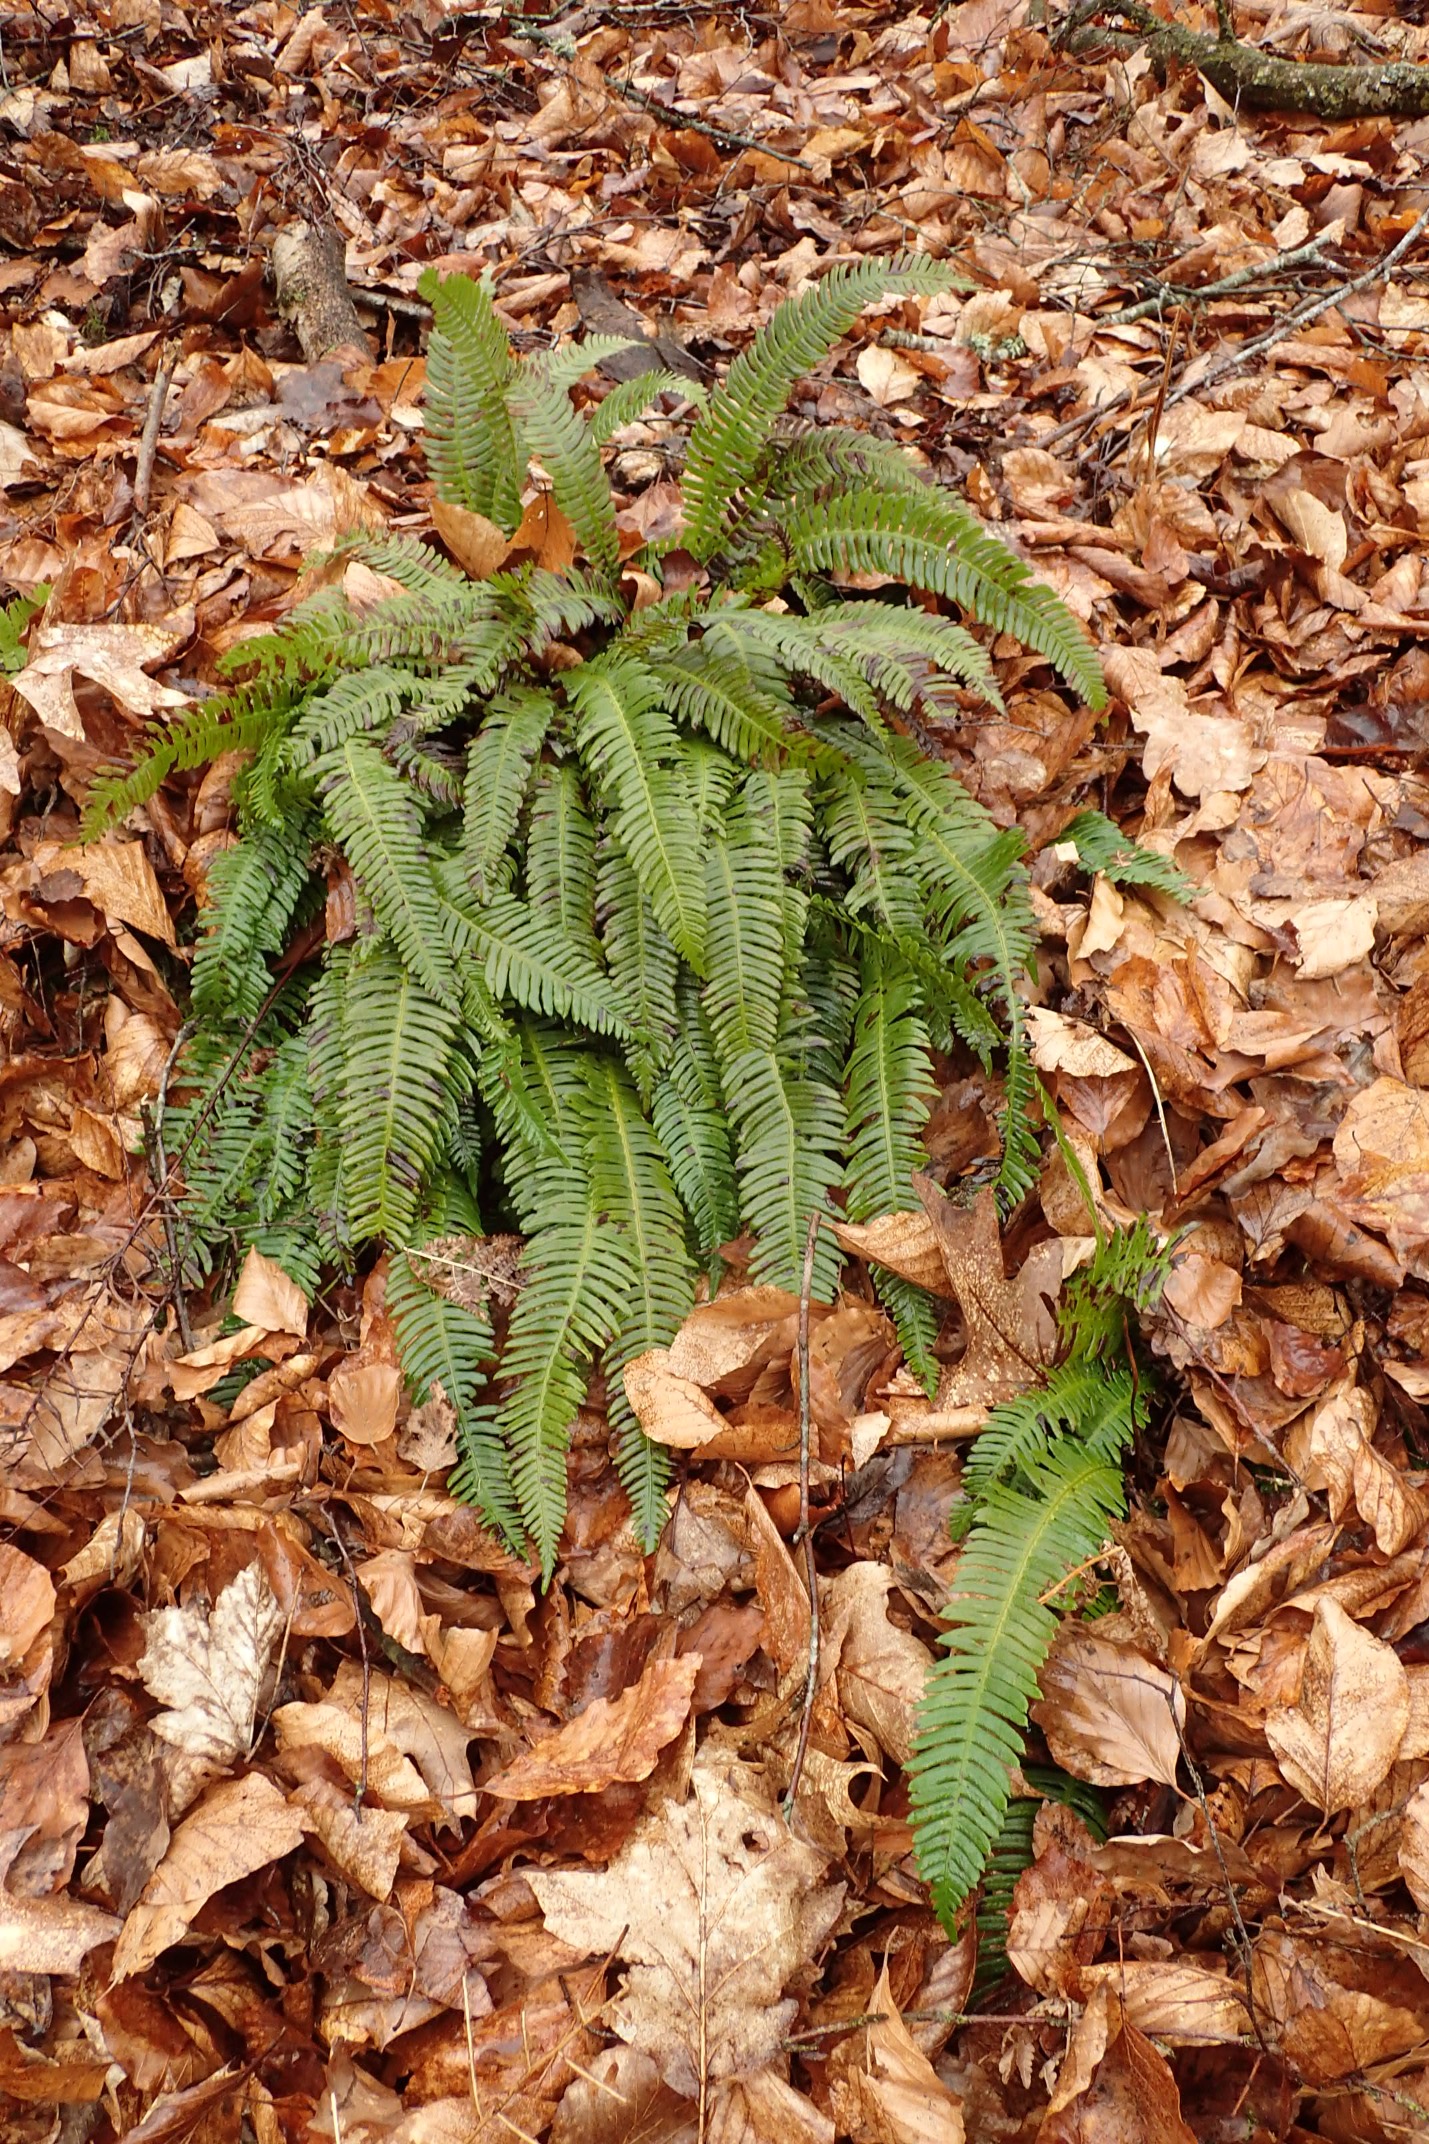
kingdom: Plantae
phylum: Tracheophyta
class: Polypodiopsida
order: Polypodiales
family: Blechnaceae
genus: Struthiopteris
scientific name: Struthiopteris spicant
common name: Kambregne
